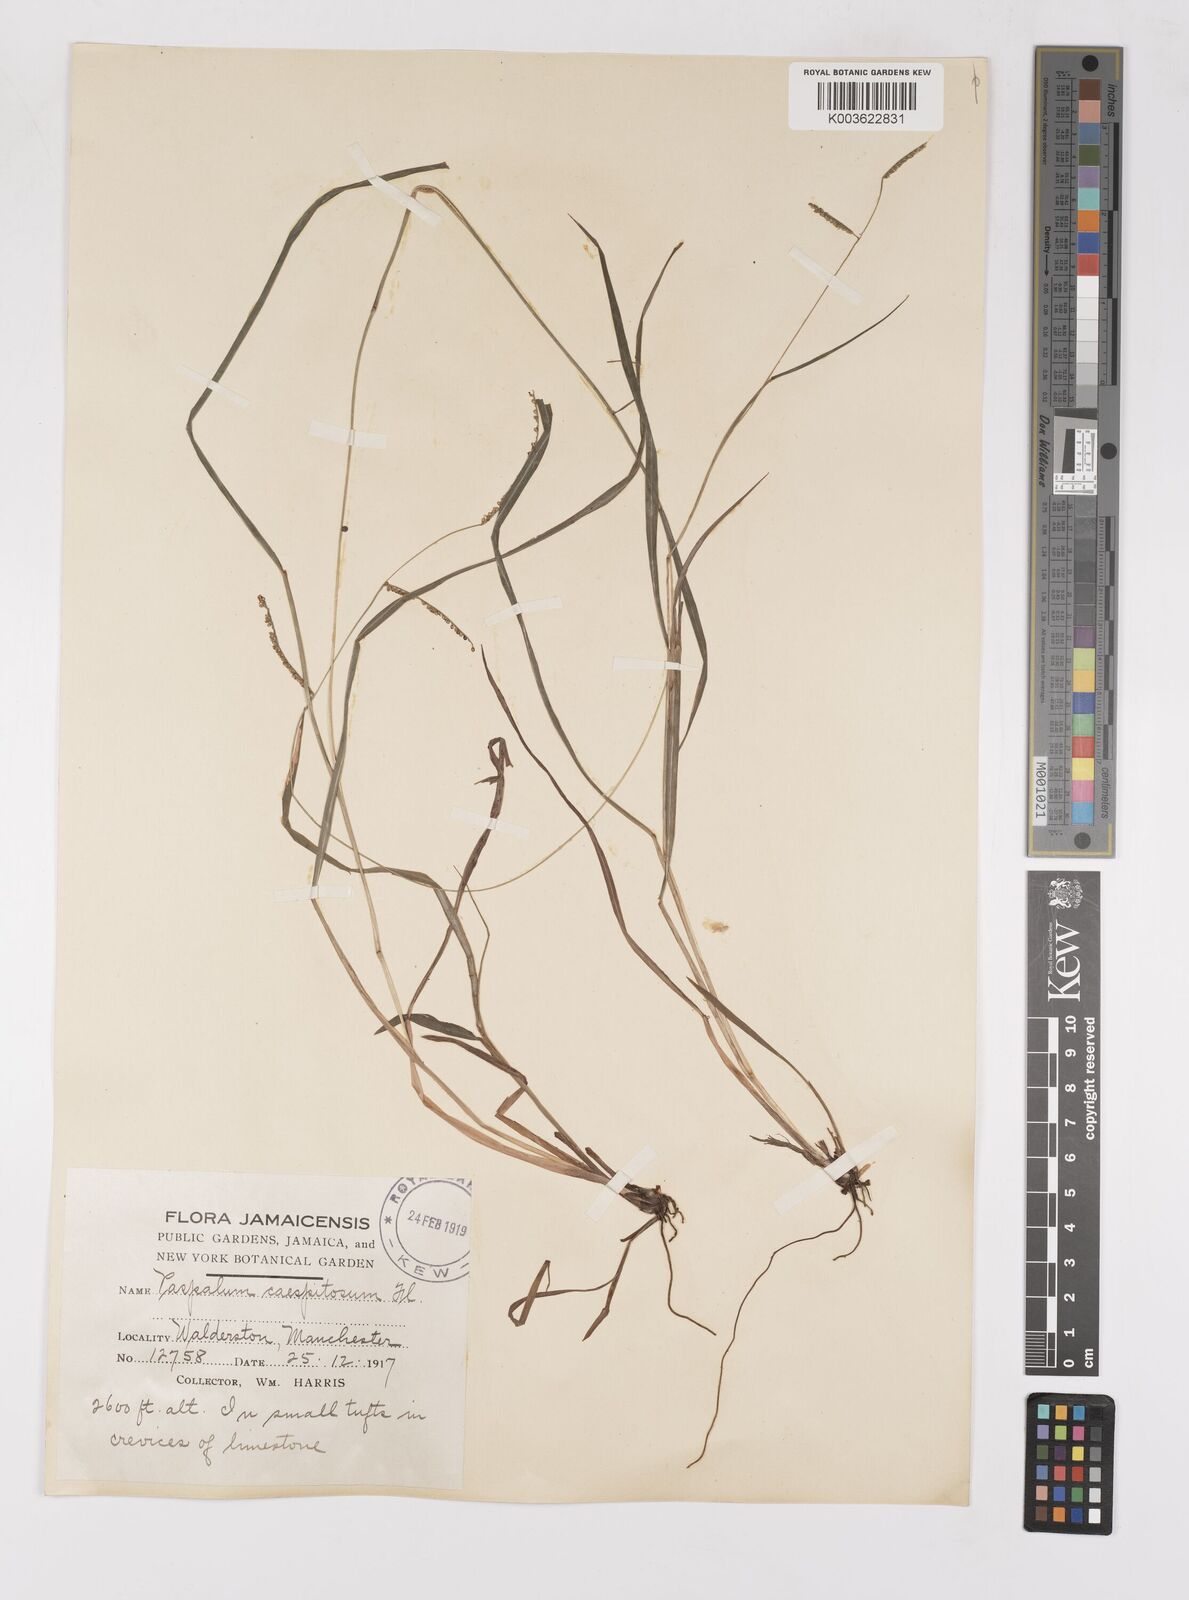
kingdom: Plantae
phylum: Tracheophyta
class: Liliopsida
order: Poales
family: Poaceae
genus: Paspalum
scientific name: Paspalum caespitosum
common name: Blue crowngrass
